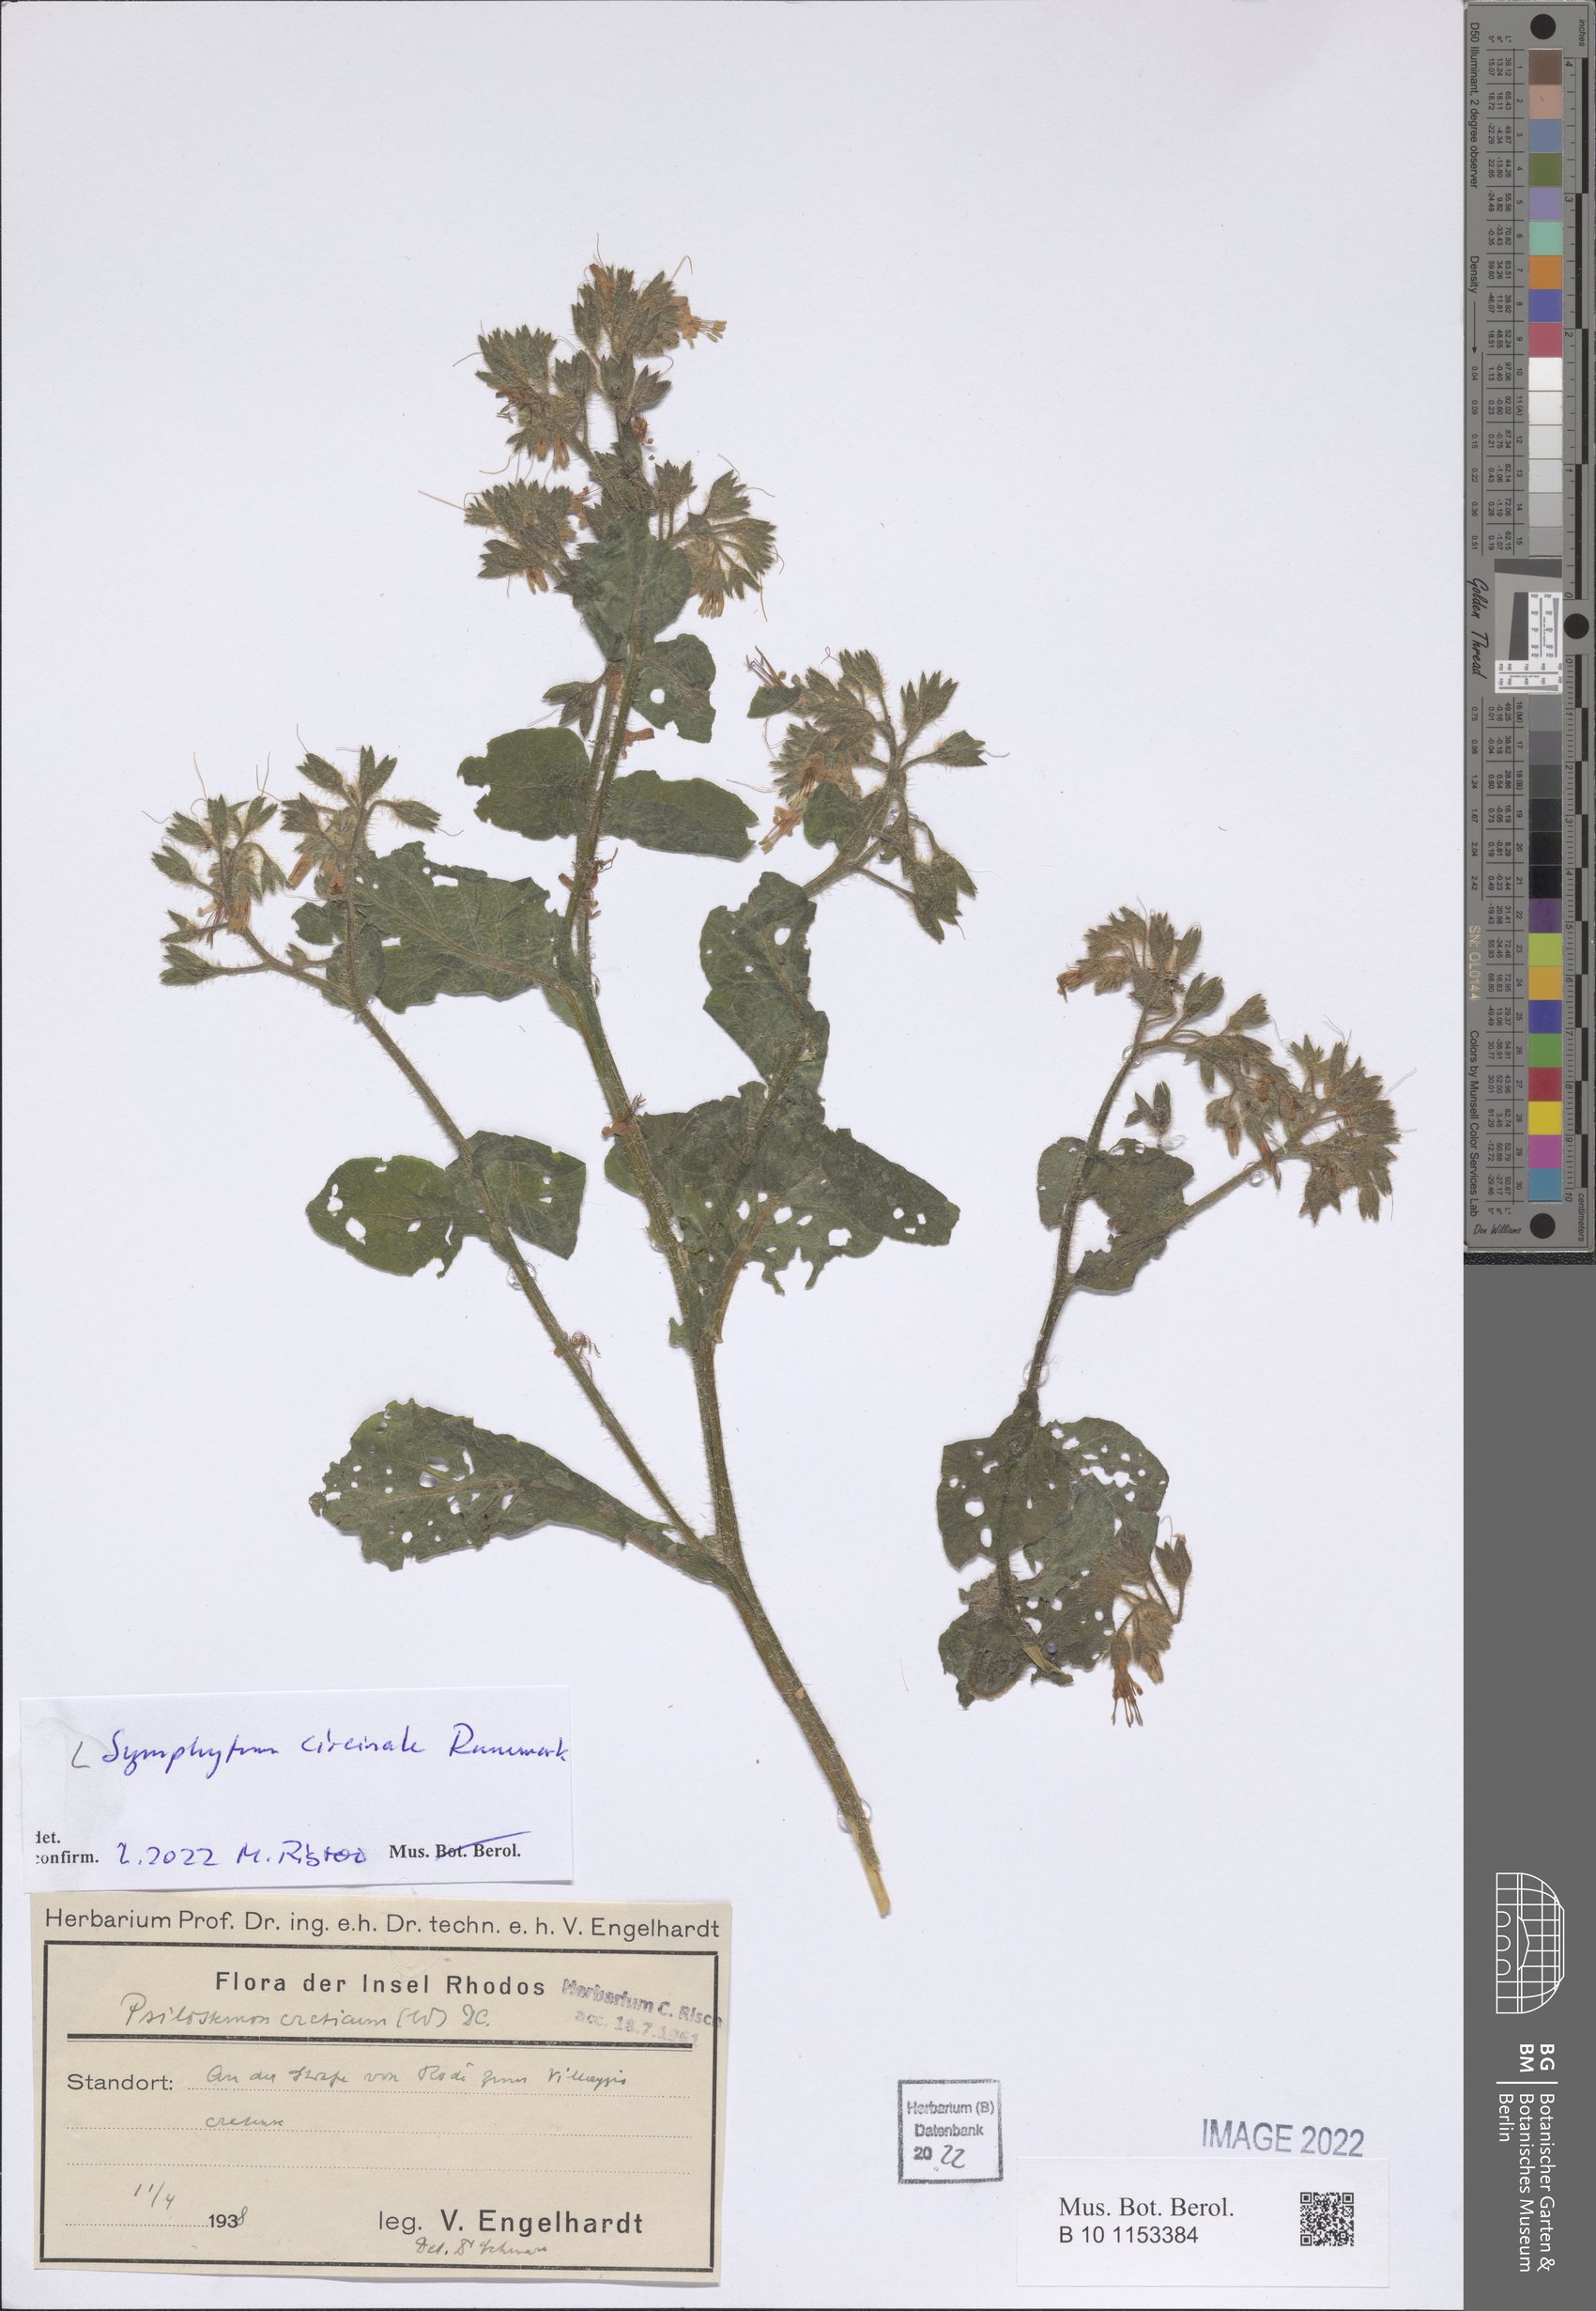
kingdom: Plantae
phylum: Tracheophyta
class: Magnoliopsida
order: Boraginales
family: Boraginaceae
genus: Symphytum
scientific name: Symphytum circinale
